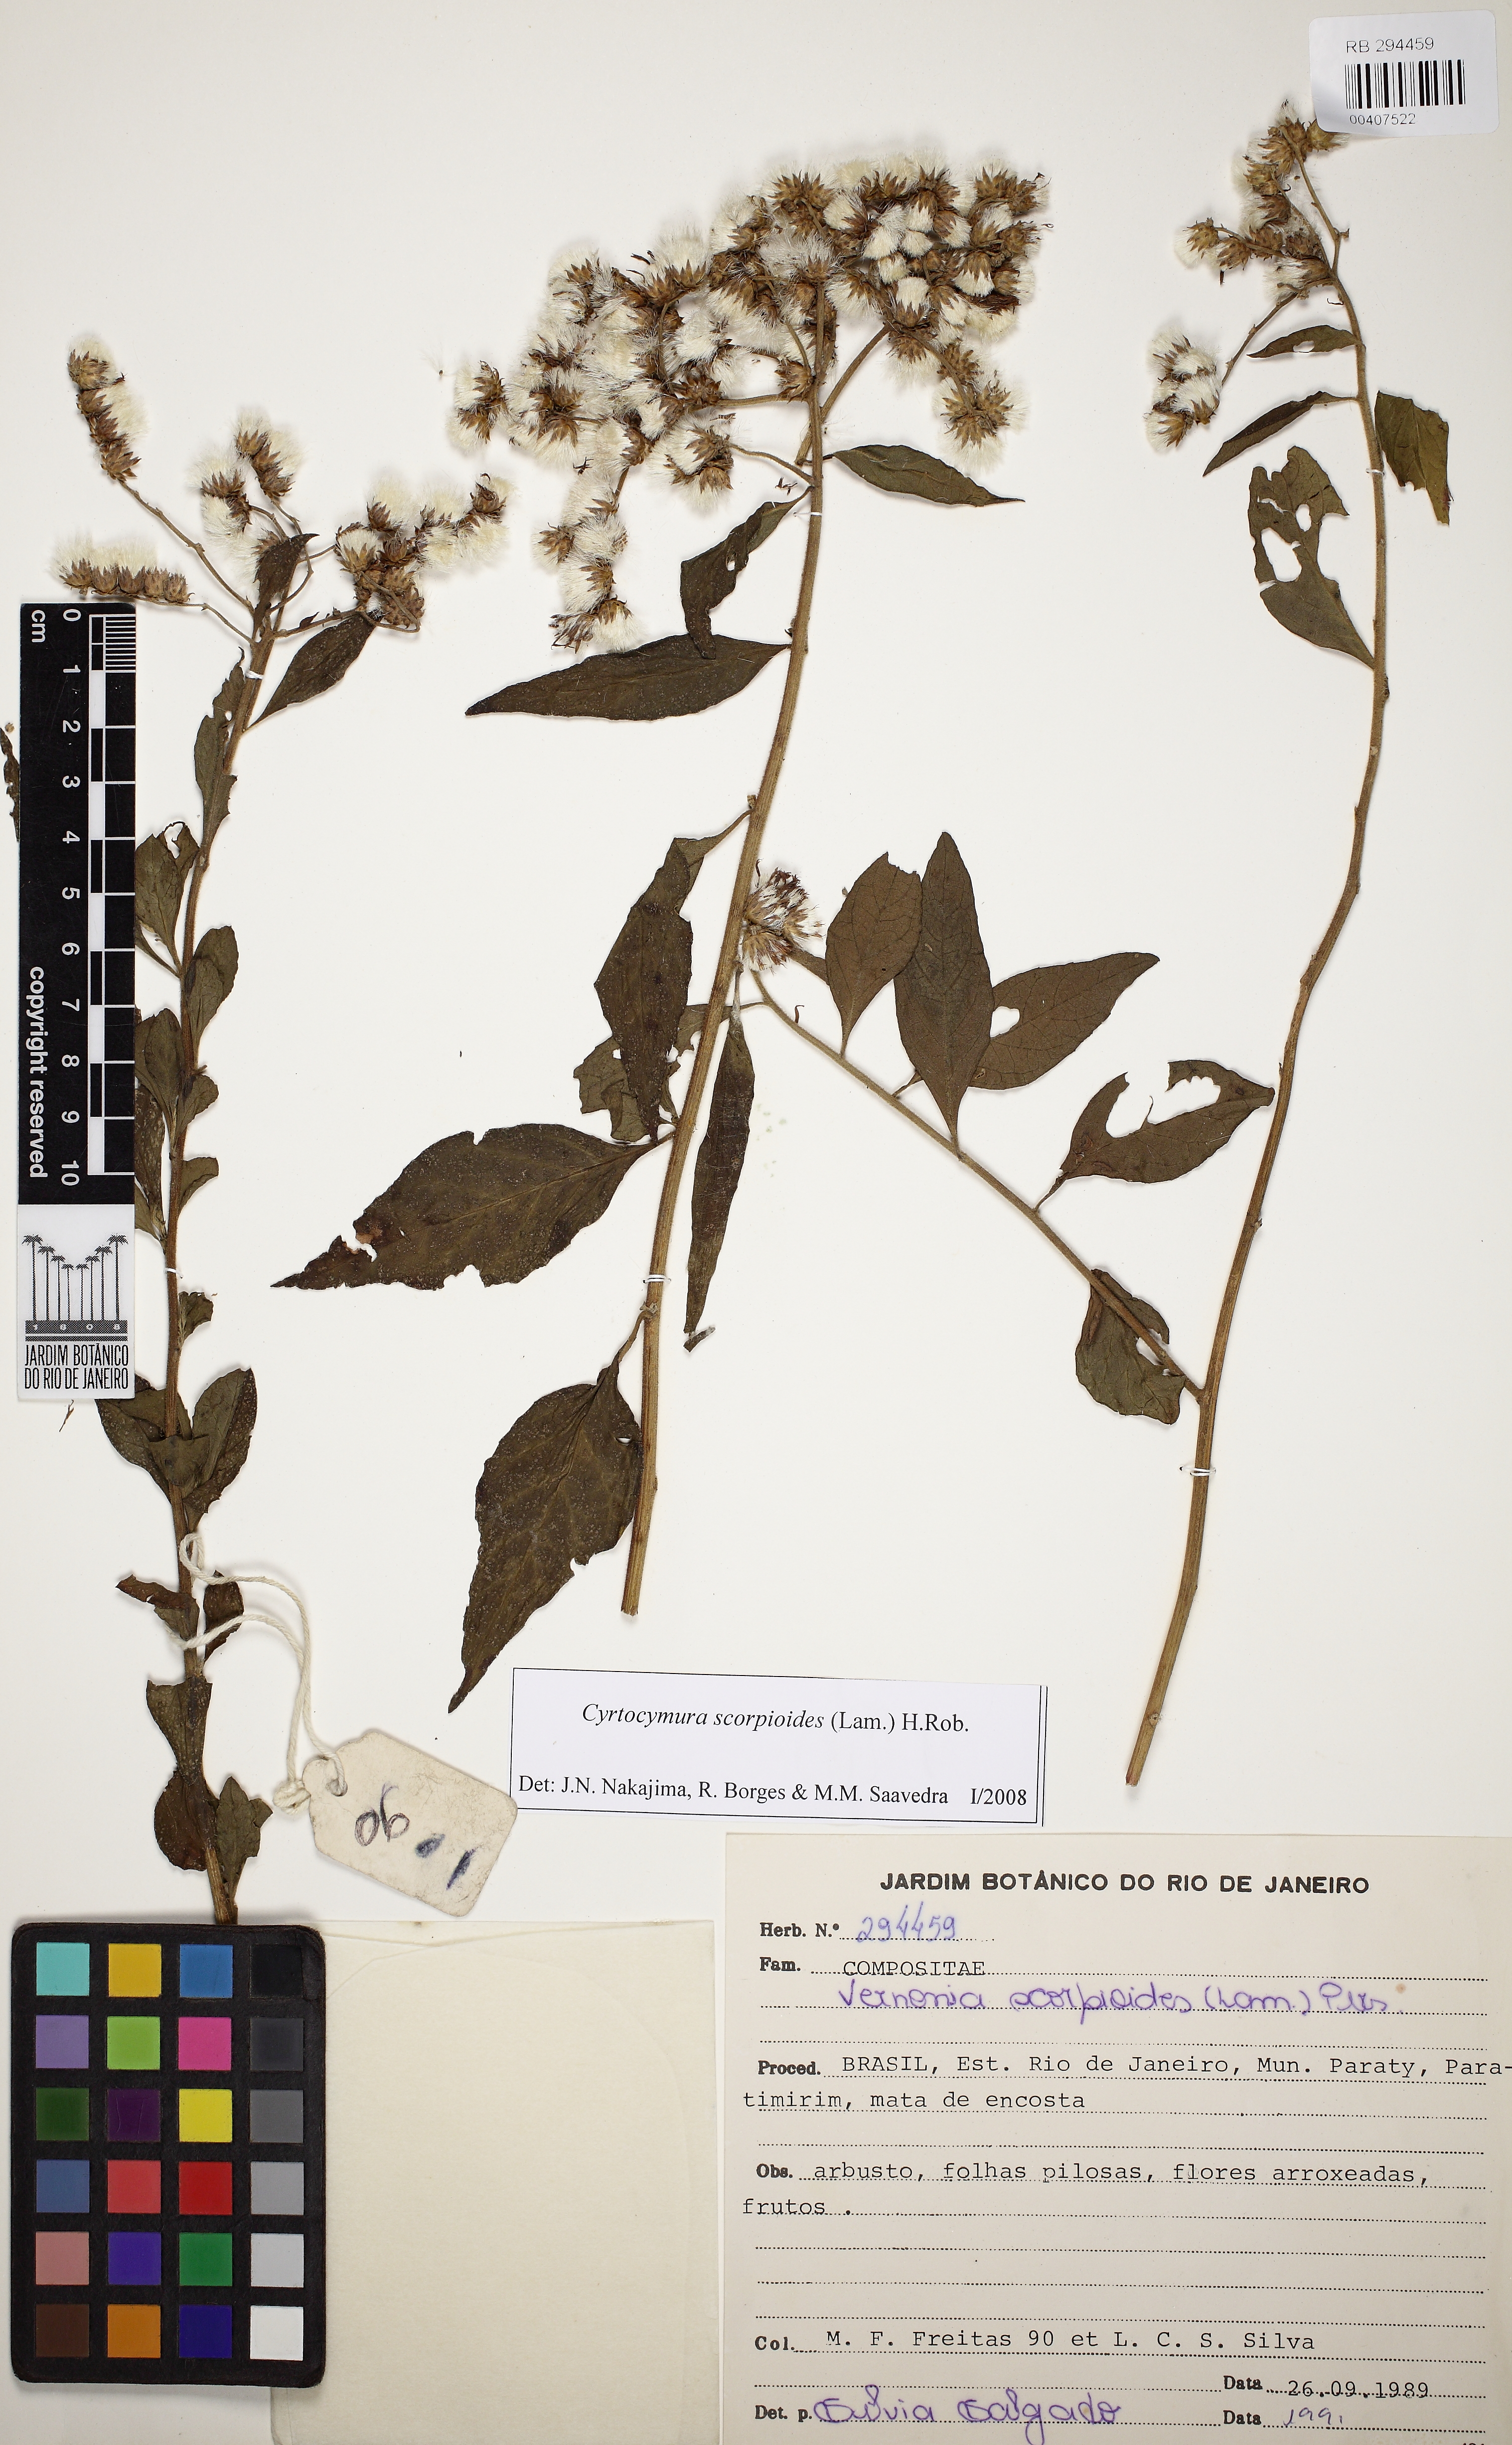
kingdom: Plantae
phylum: Tracheophyta
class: Magnoliopsida
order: Asterales
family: Asteraceae
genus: Cyrtocymura
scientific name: Cyrtocymura scorpioides
